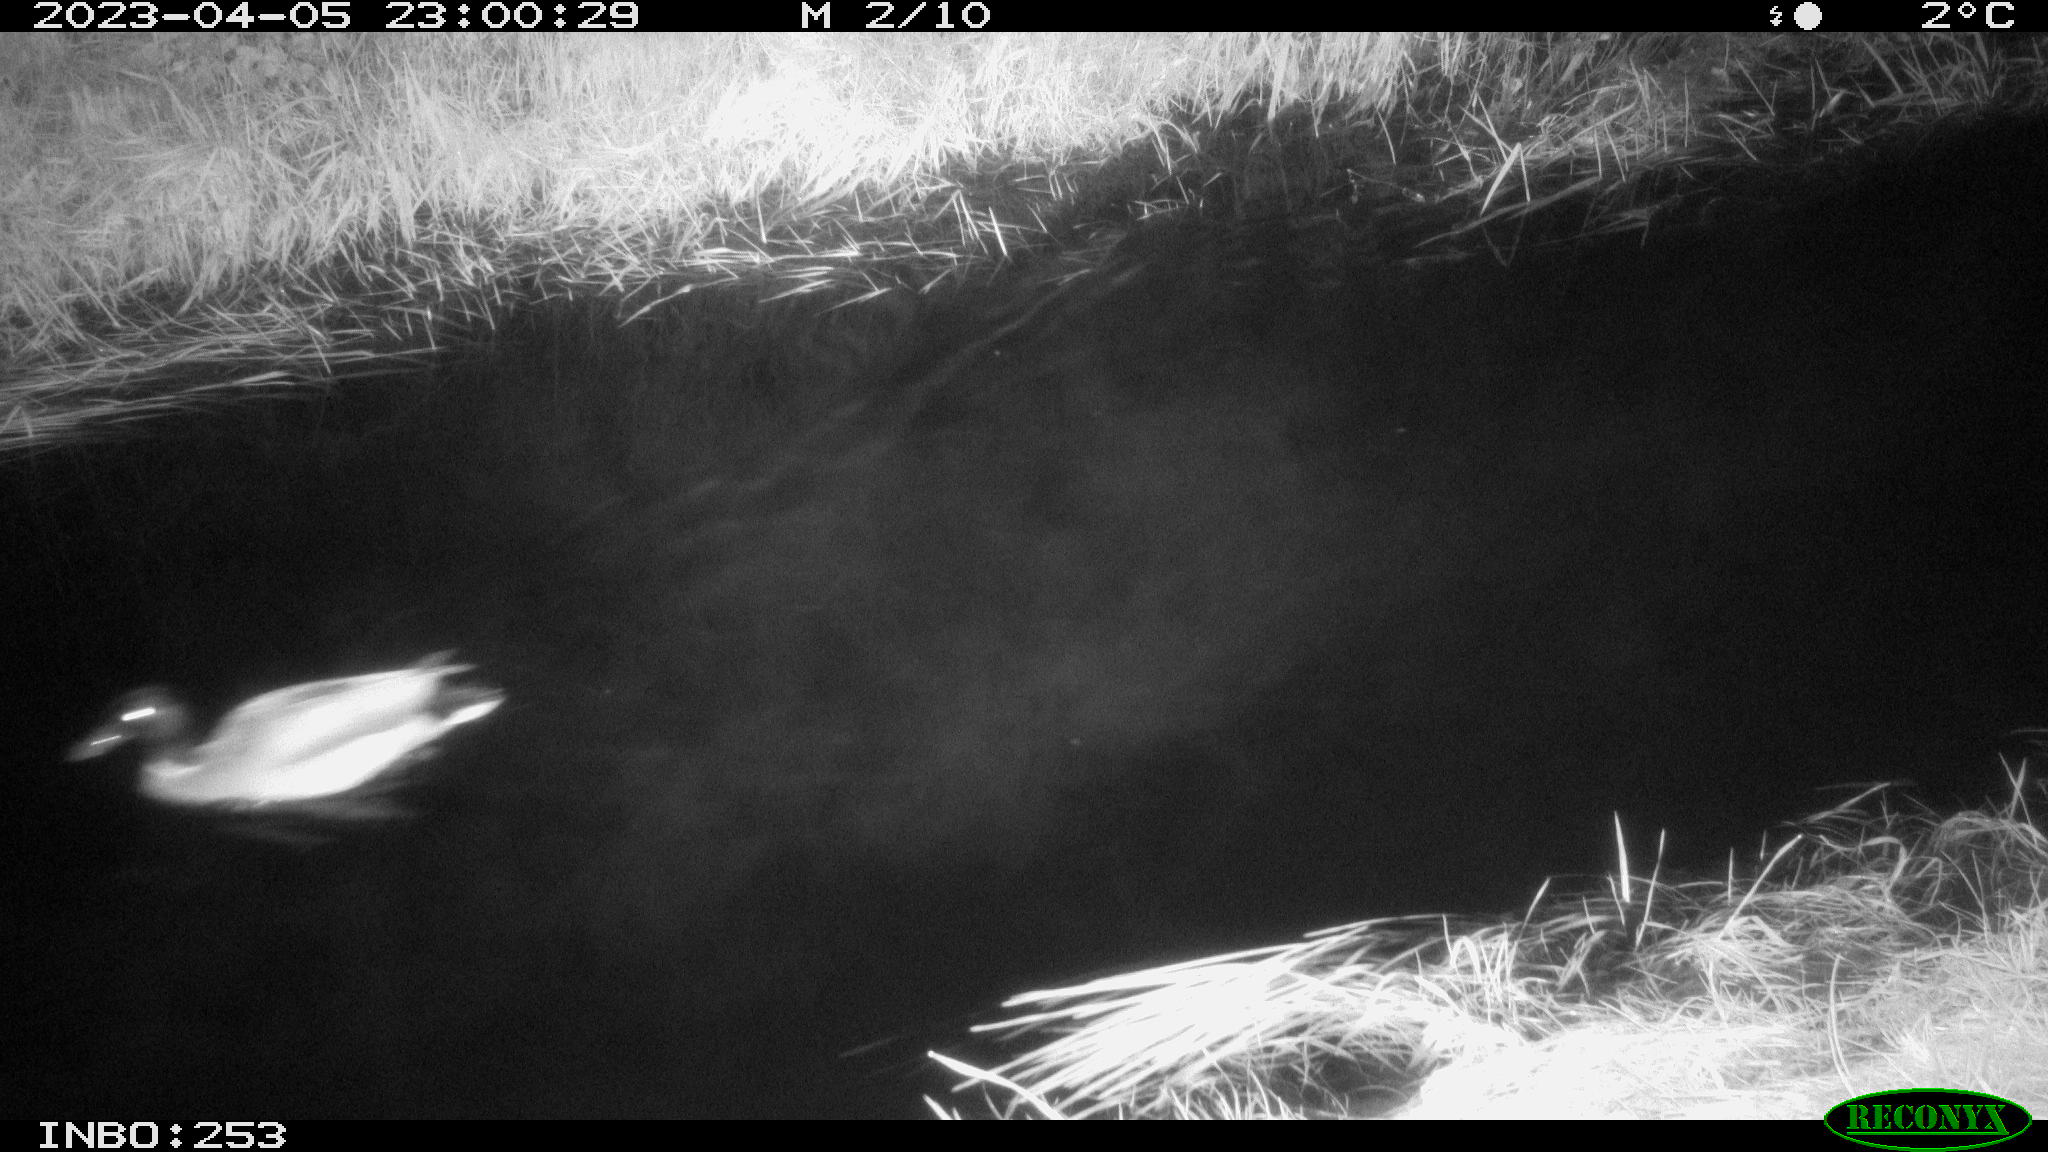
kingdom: Animalia
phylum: Chordata
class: Aves
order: Anseriformes
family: Anatidae
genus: Anas
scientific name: Anas
